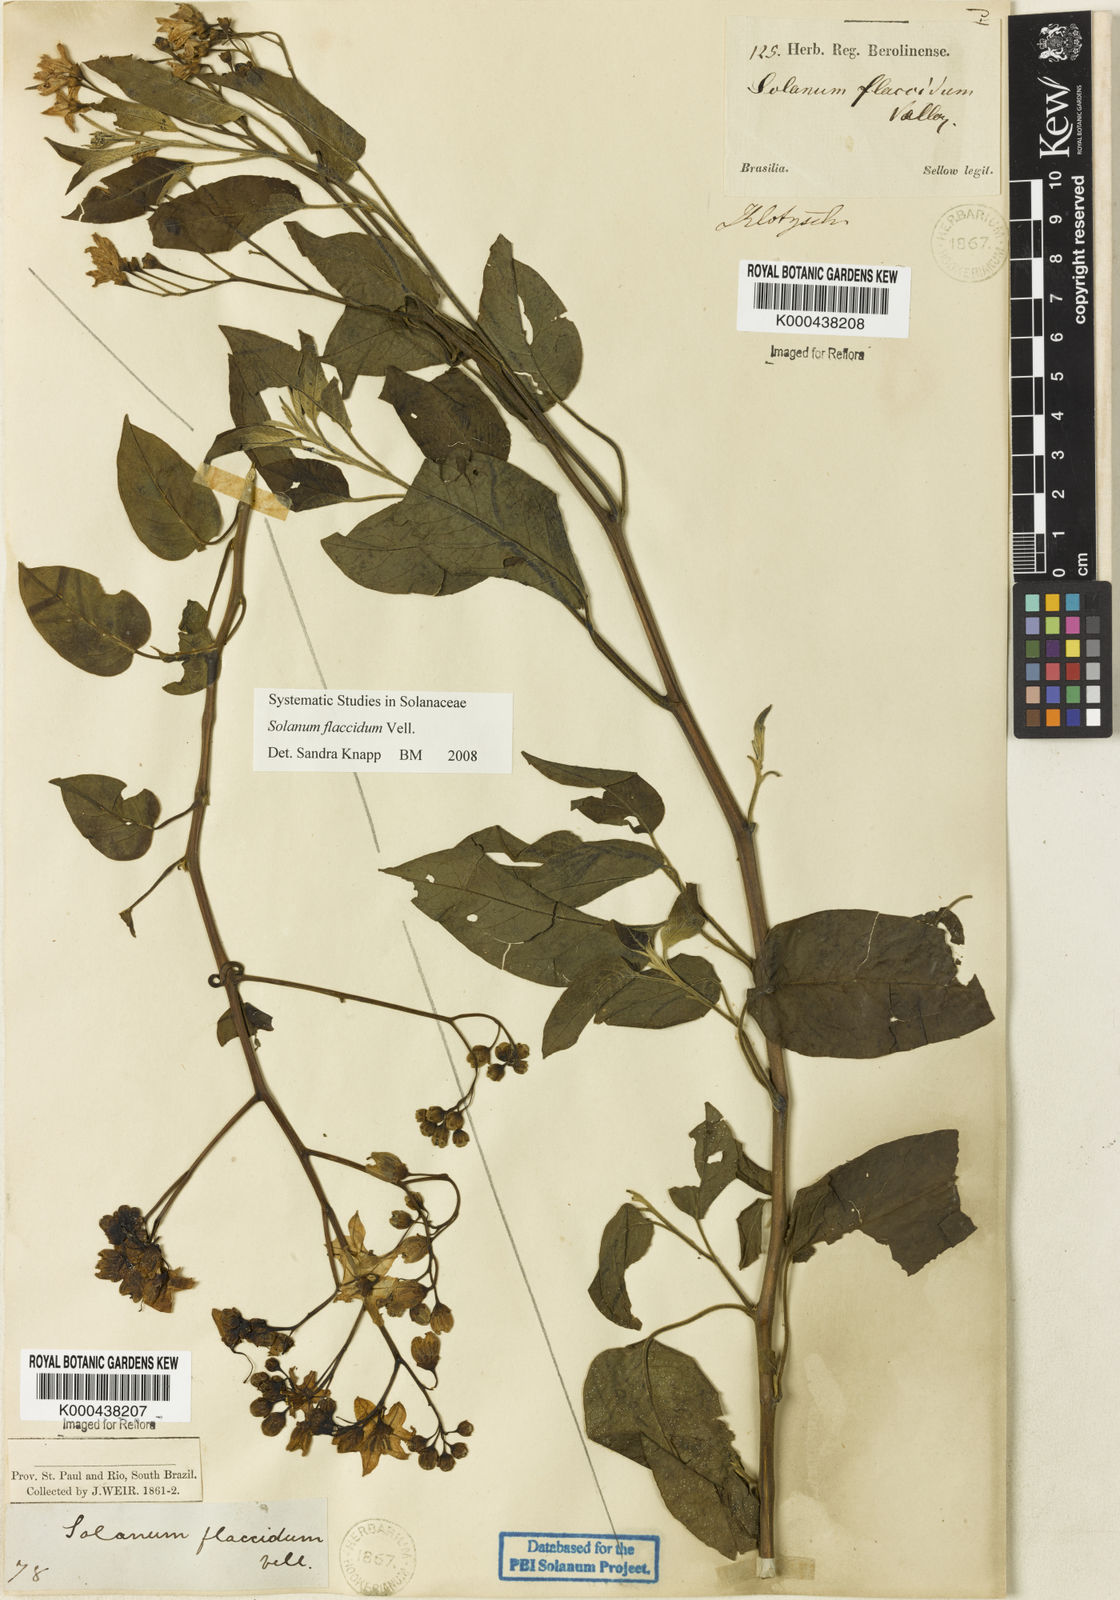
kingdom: Plantae
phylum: Tracheophyta
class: Magnoliopsida
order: Solanales
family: Solanaceae
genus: Solanum
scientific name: Solanum flaccidum
